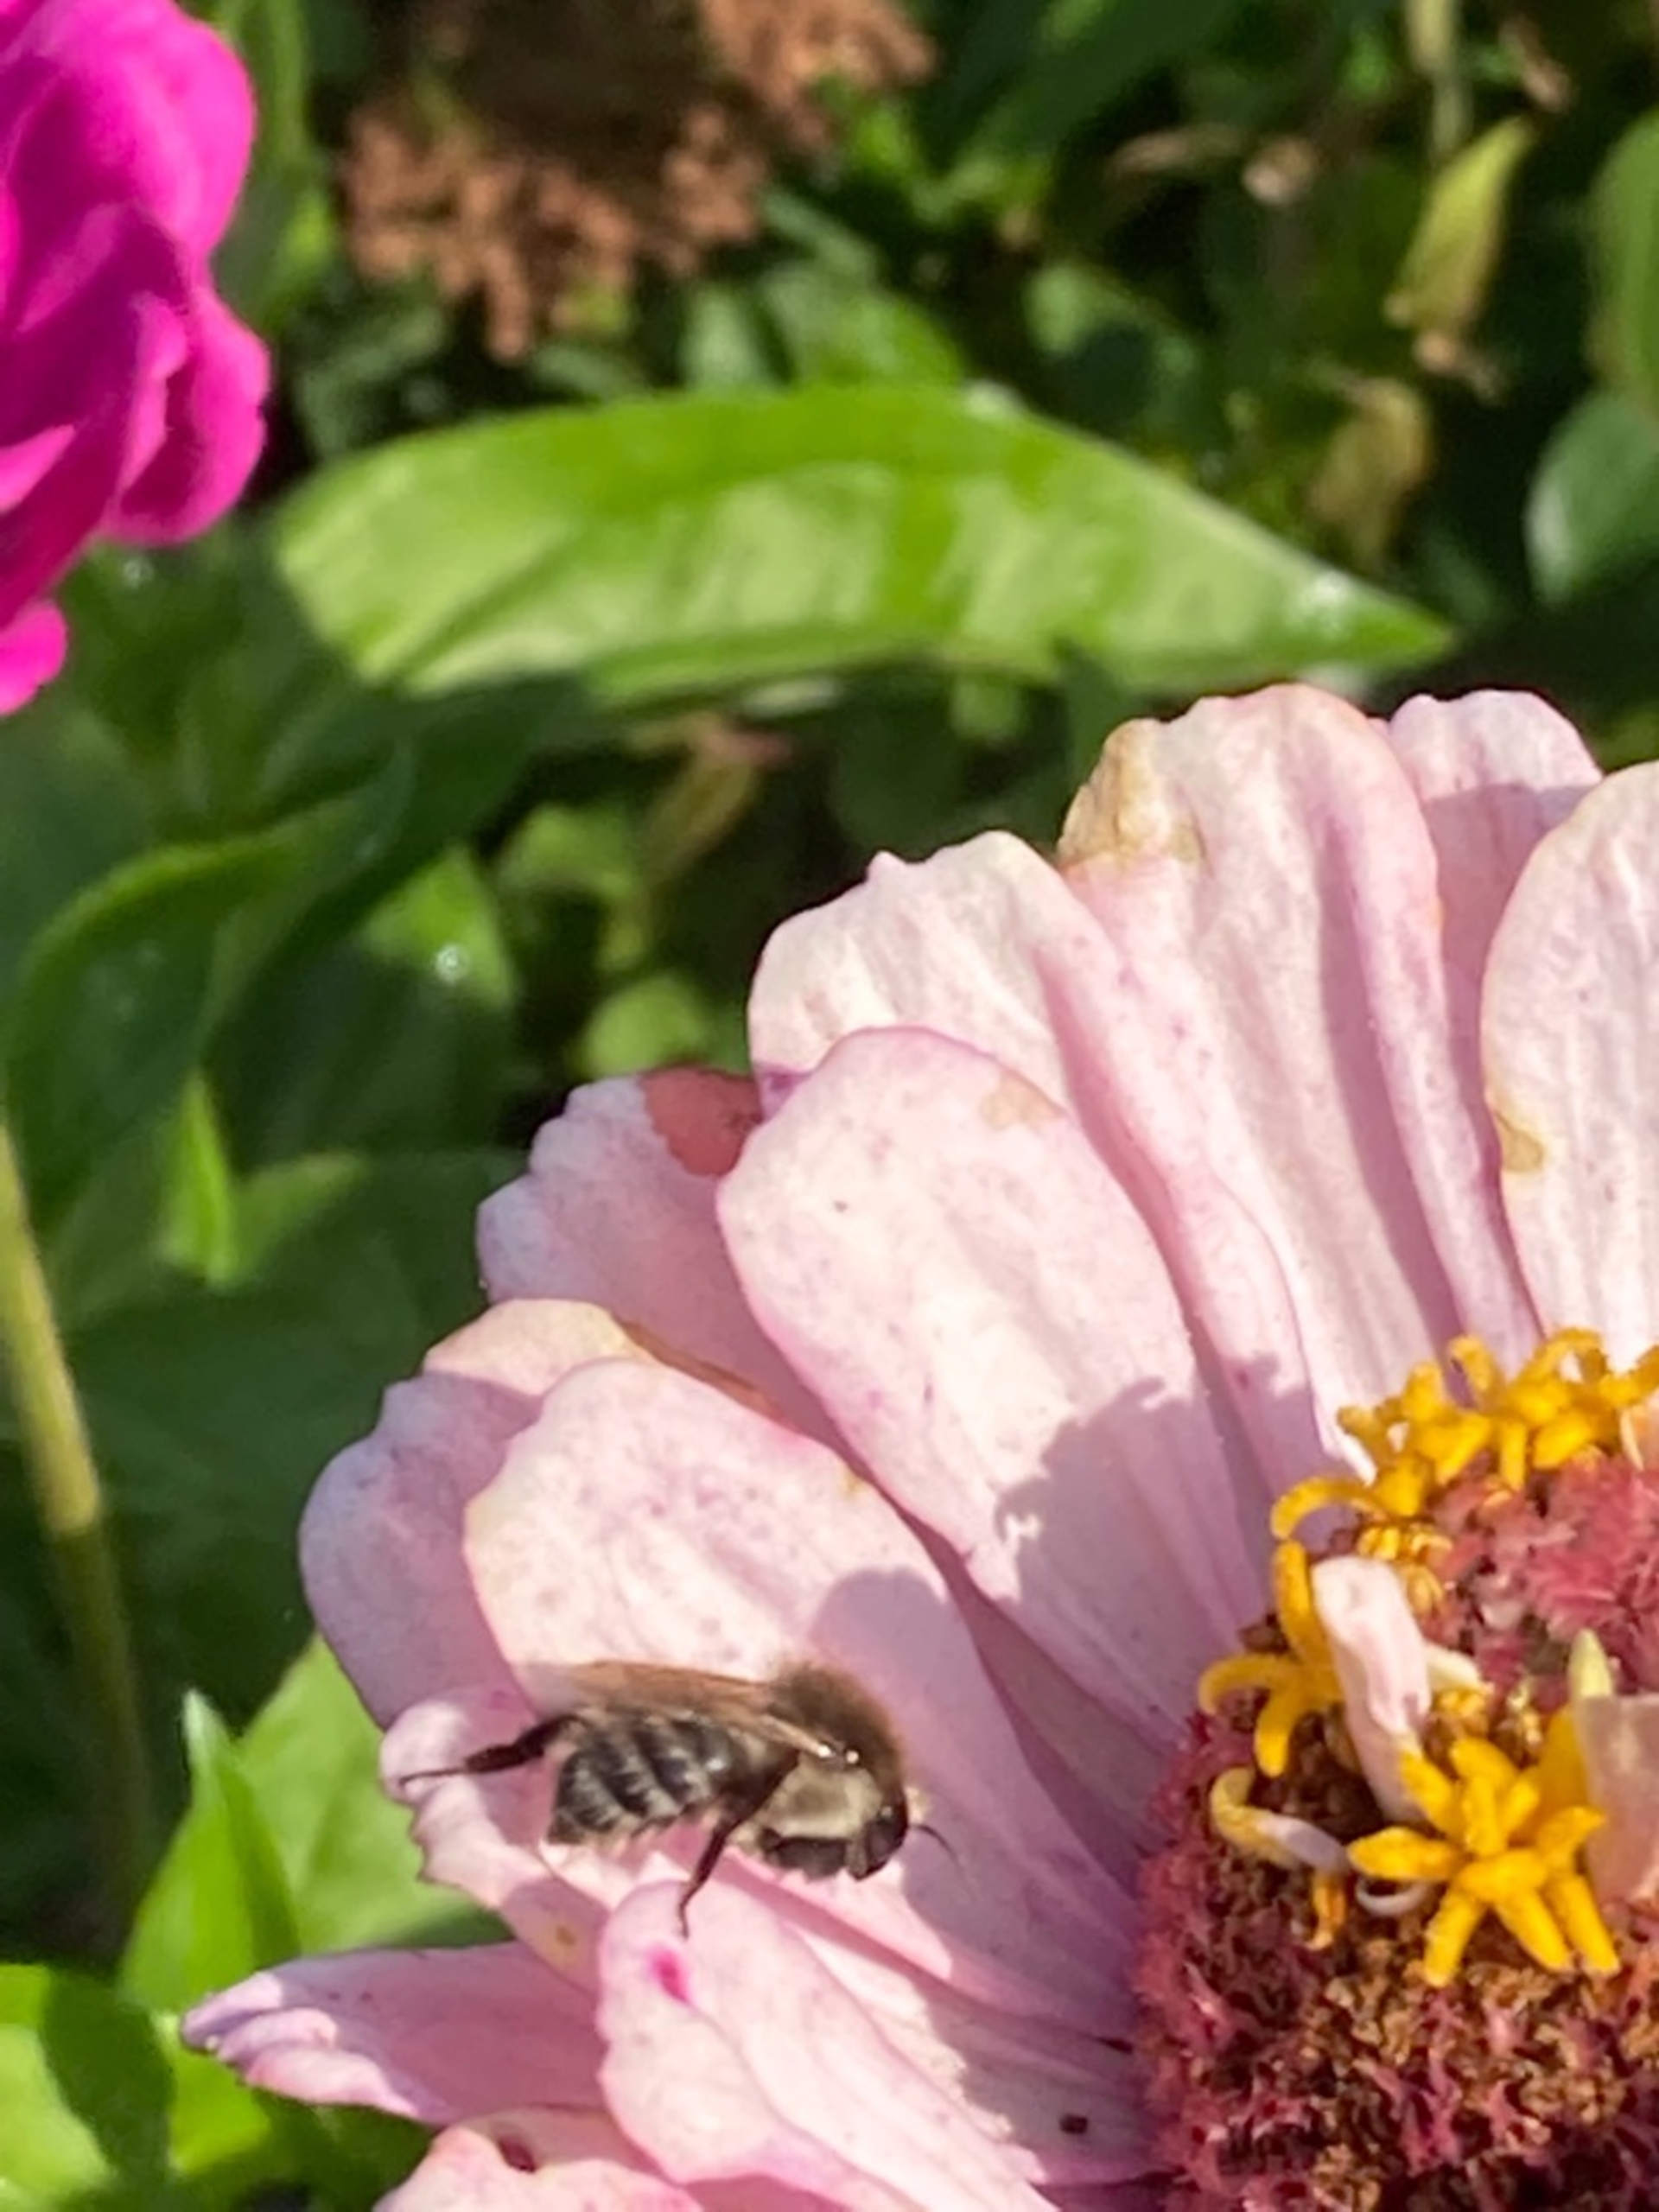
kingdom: Animalia
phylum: Arthropoda
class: Insecta
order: Hymenoptera
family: Apidae
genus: Bombus
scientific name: Bombus pascuorum
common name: Agerhumle
